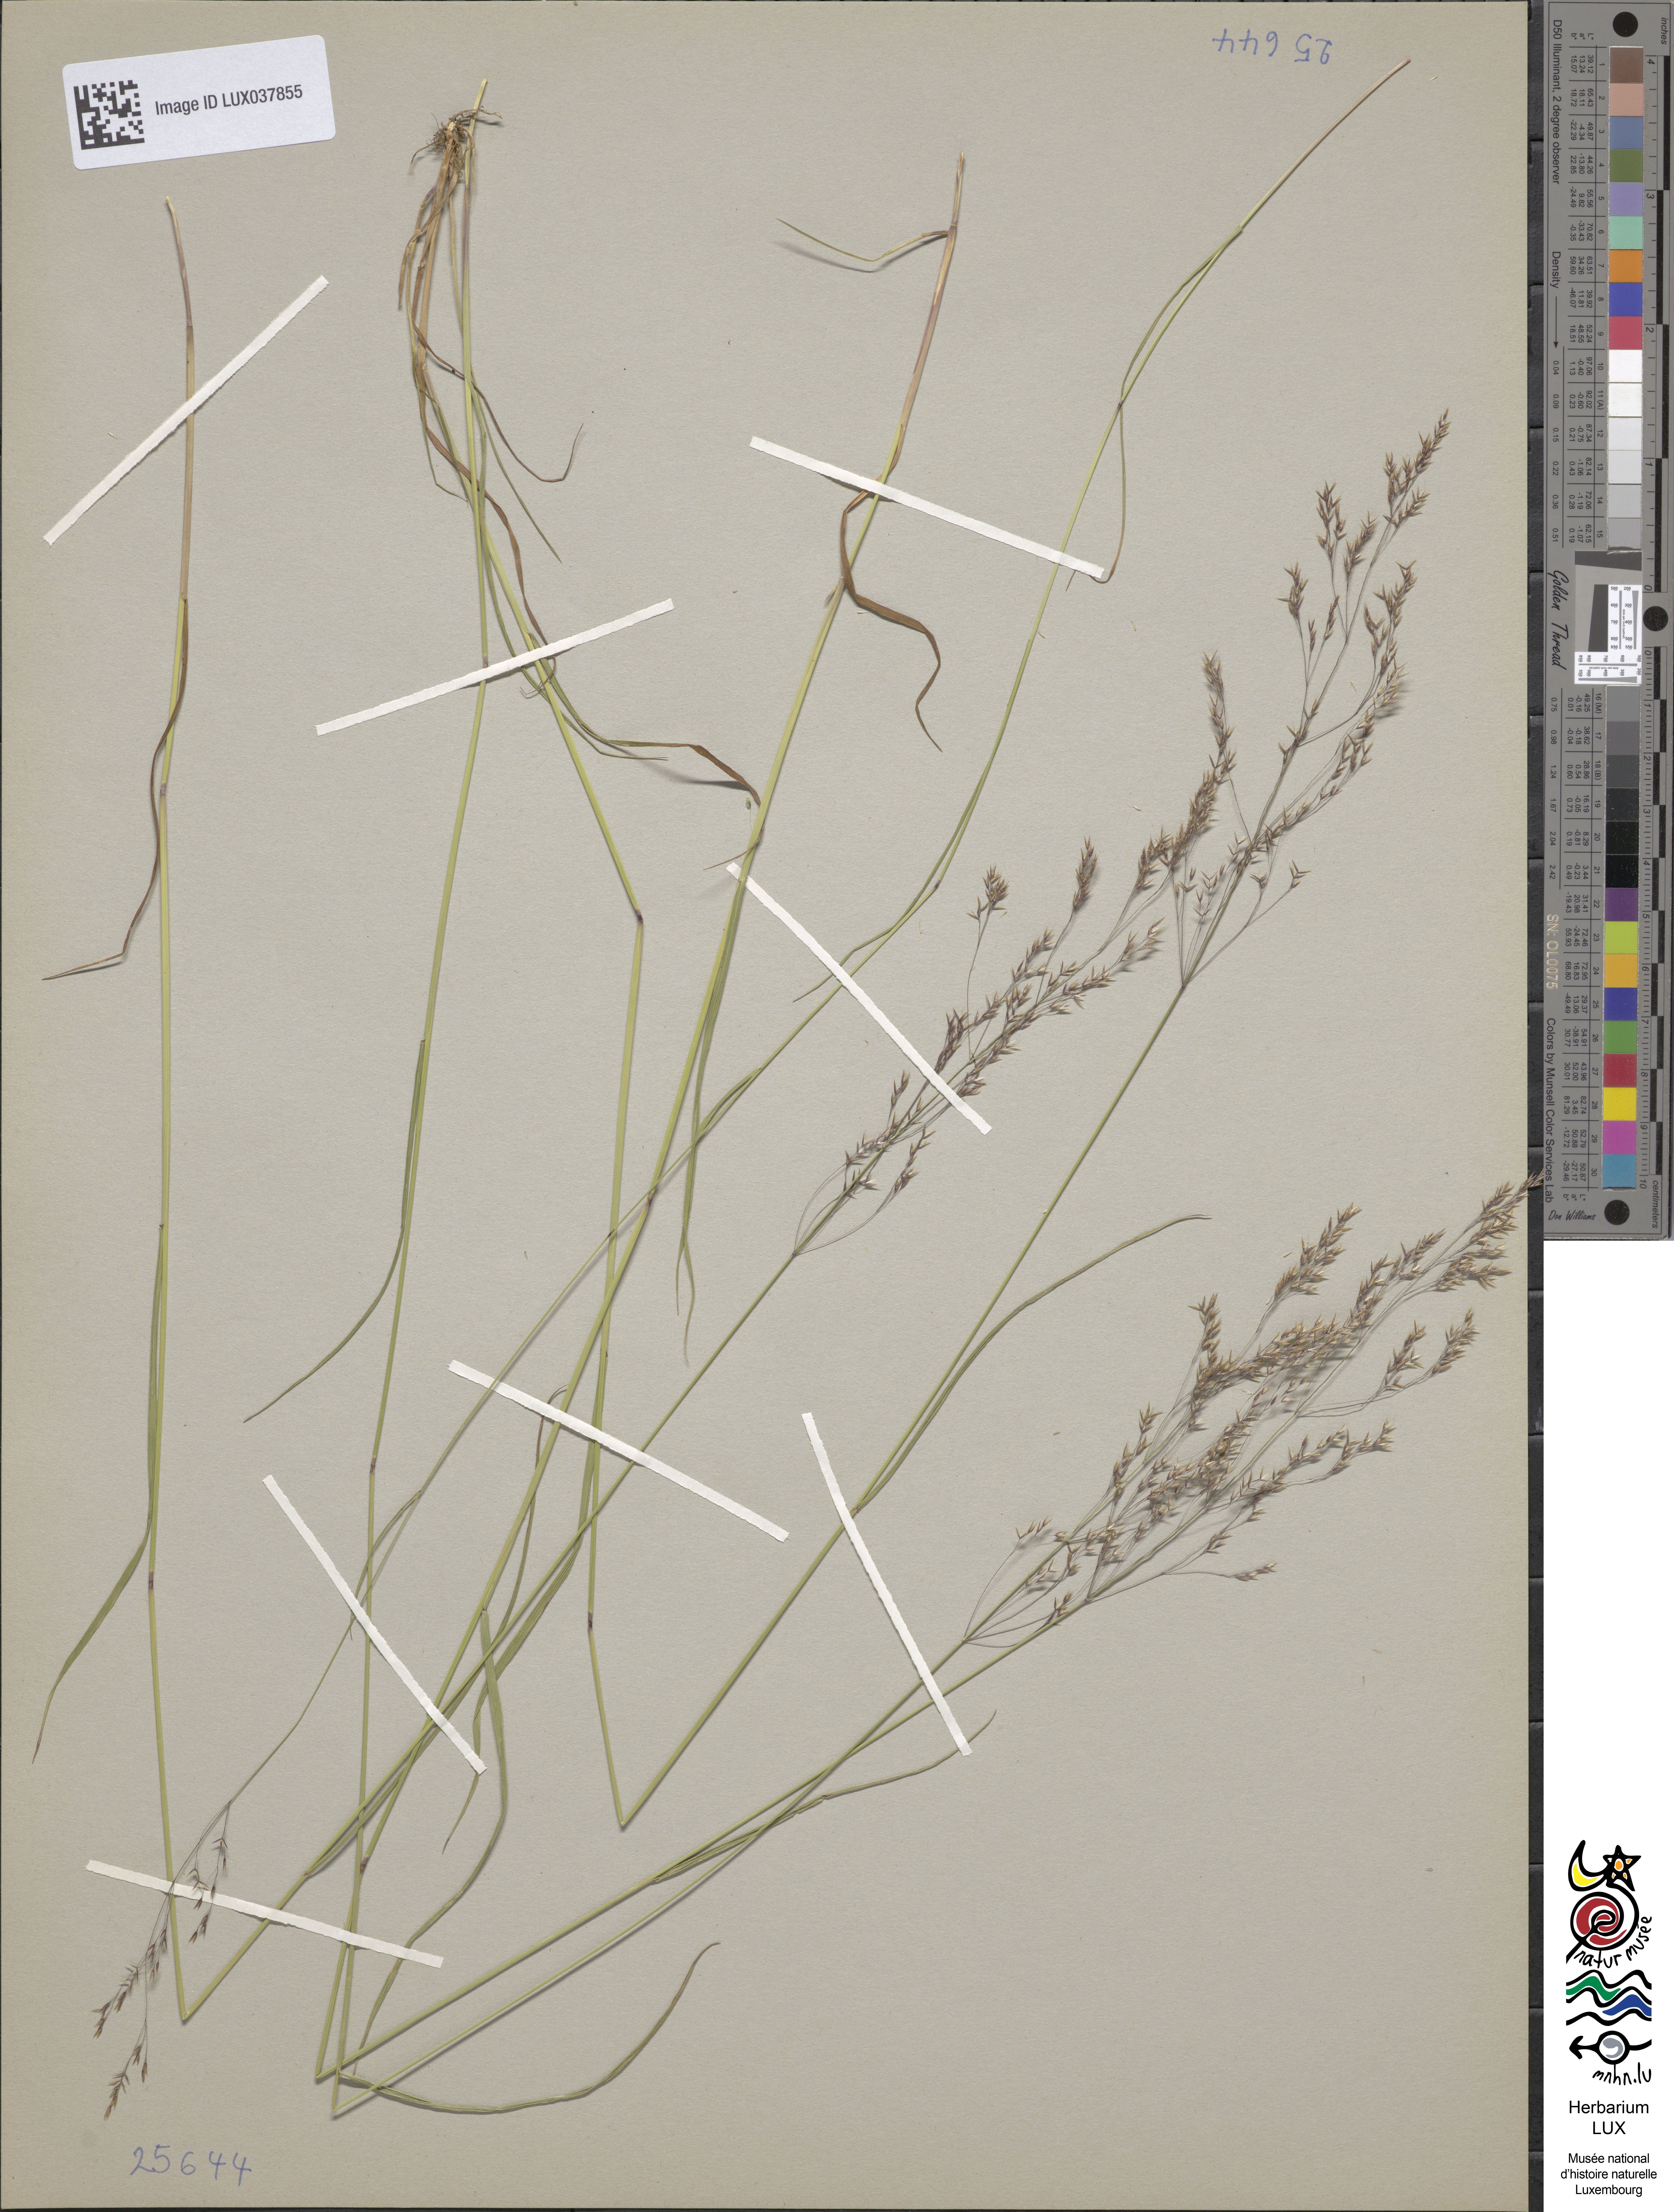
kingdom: Plantae
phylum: Tracheophyta
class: Liliopsida
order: Poales
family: Poaceae
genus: Agrostis
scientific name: Agrostis castellana
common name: Highland bent
